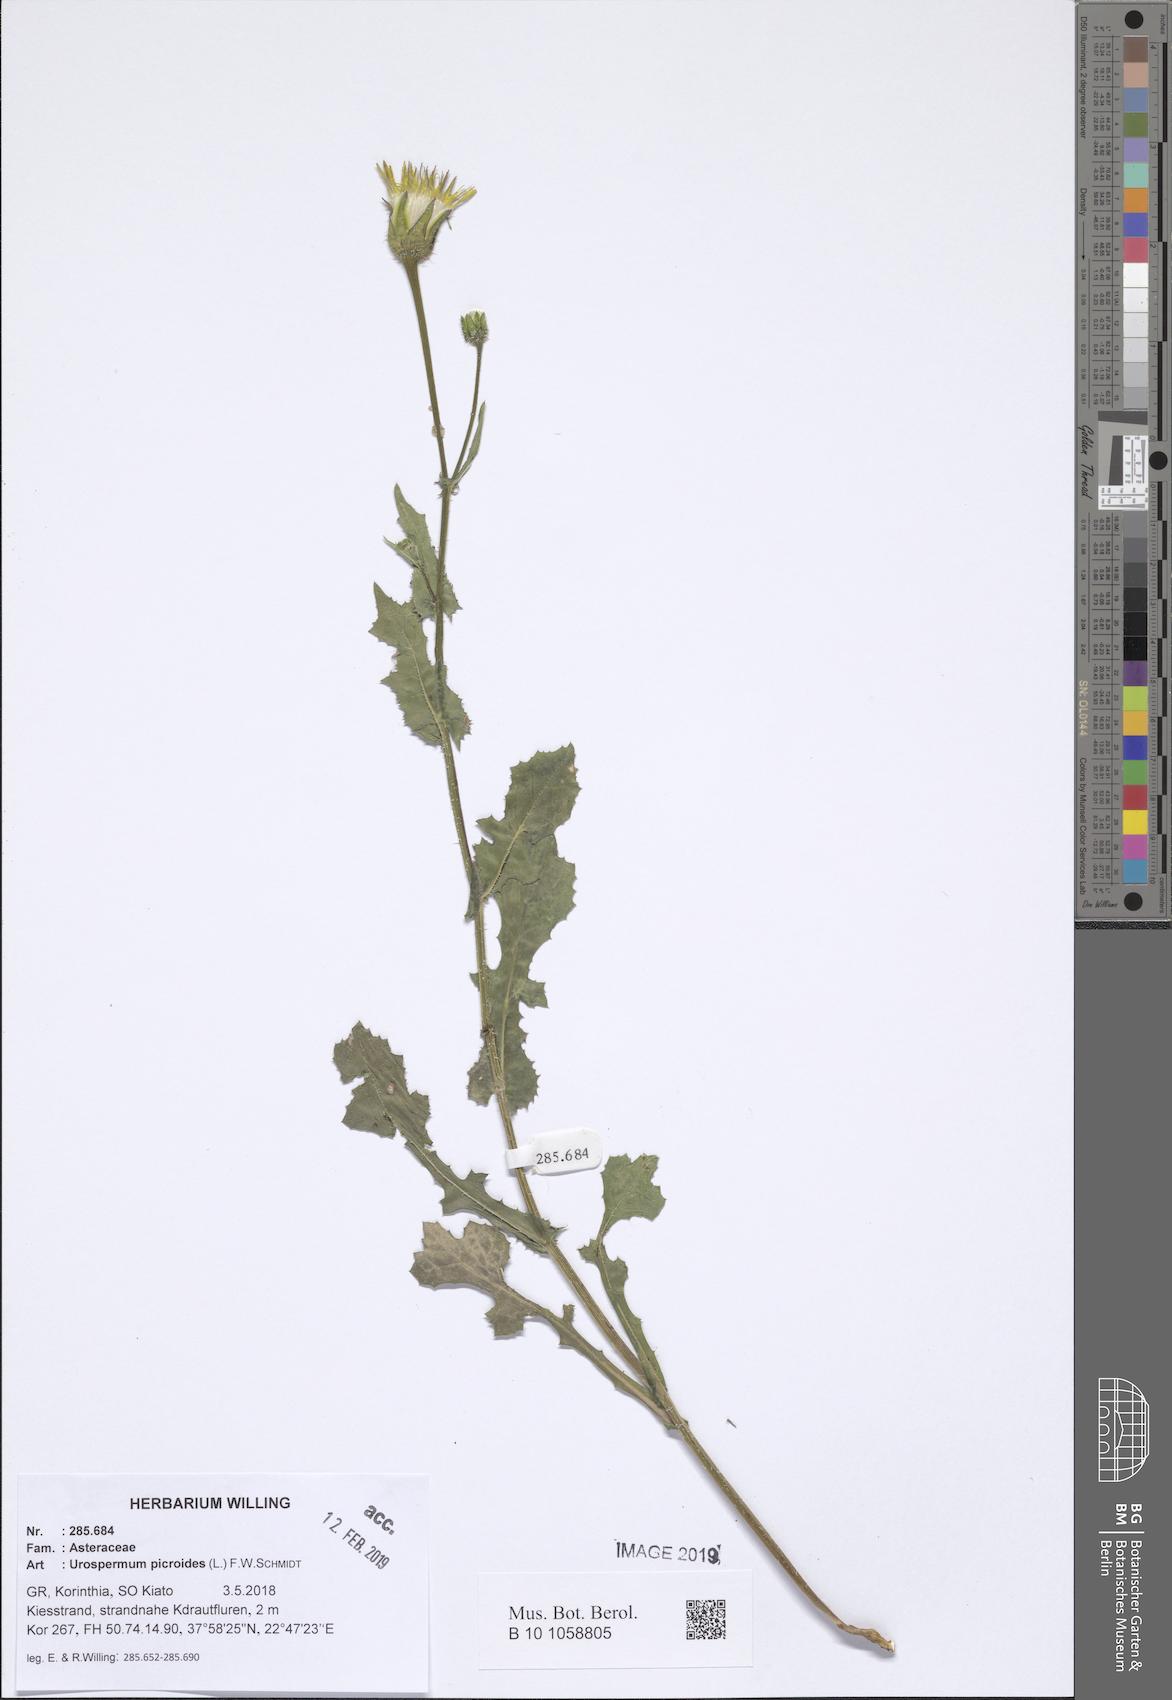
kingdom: Plantae
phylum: Tracheophyta
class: Magnoliopsida
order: Asterales
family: Asteraceae
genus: Urospermum
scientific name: Urospermum picroides
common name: False hawkbit
